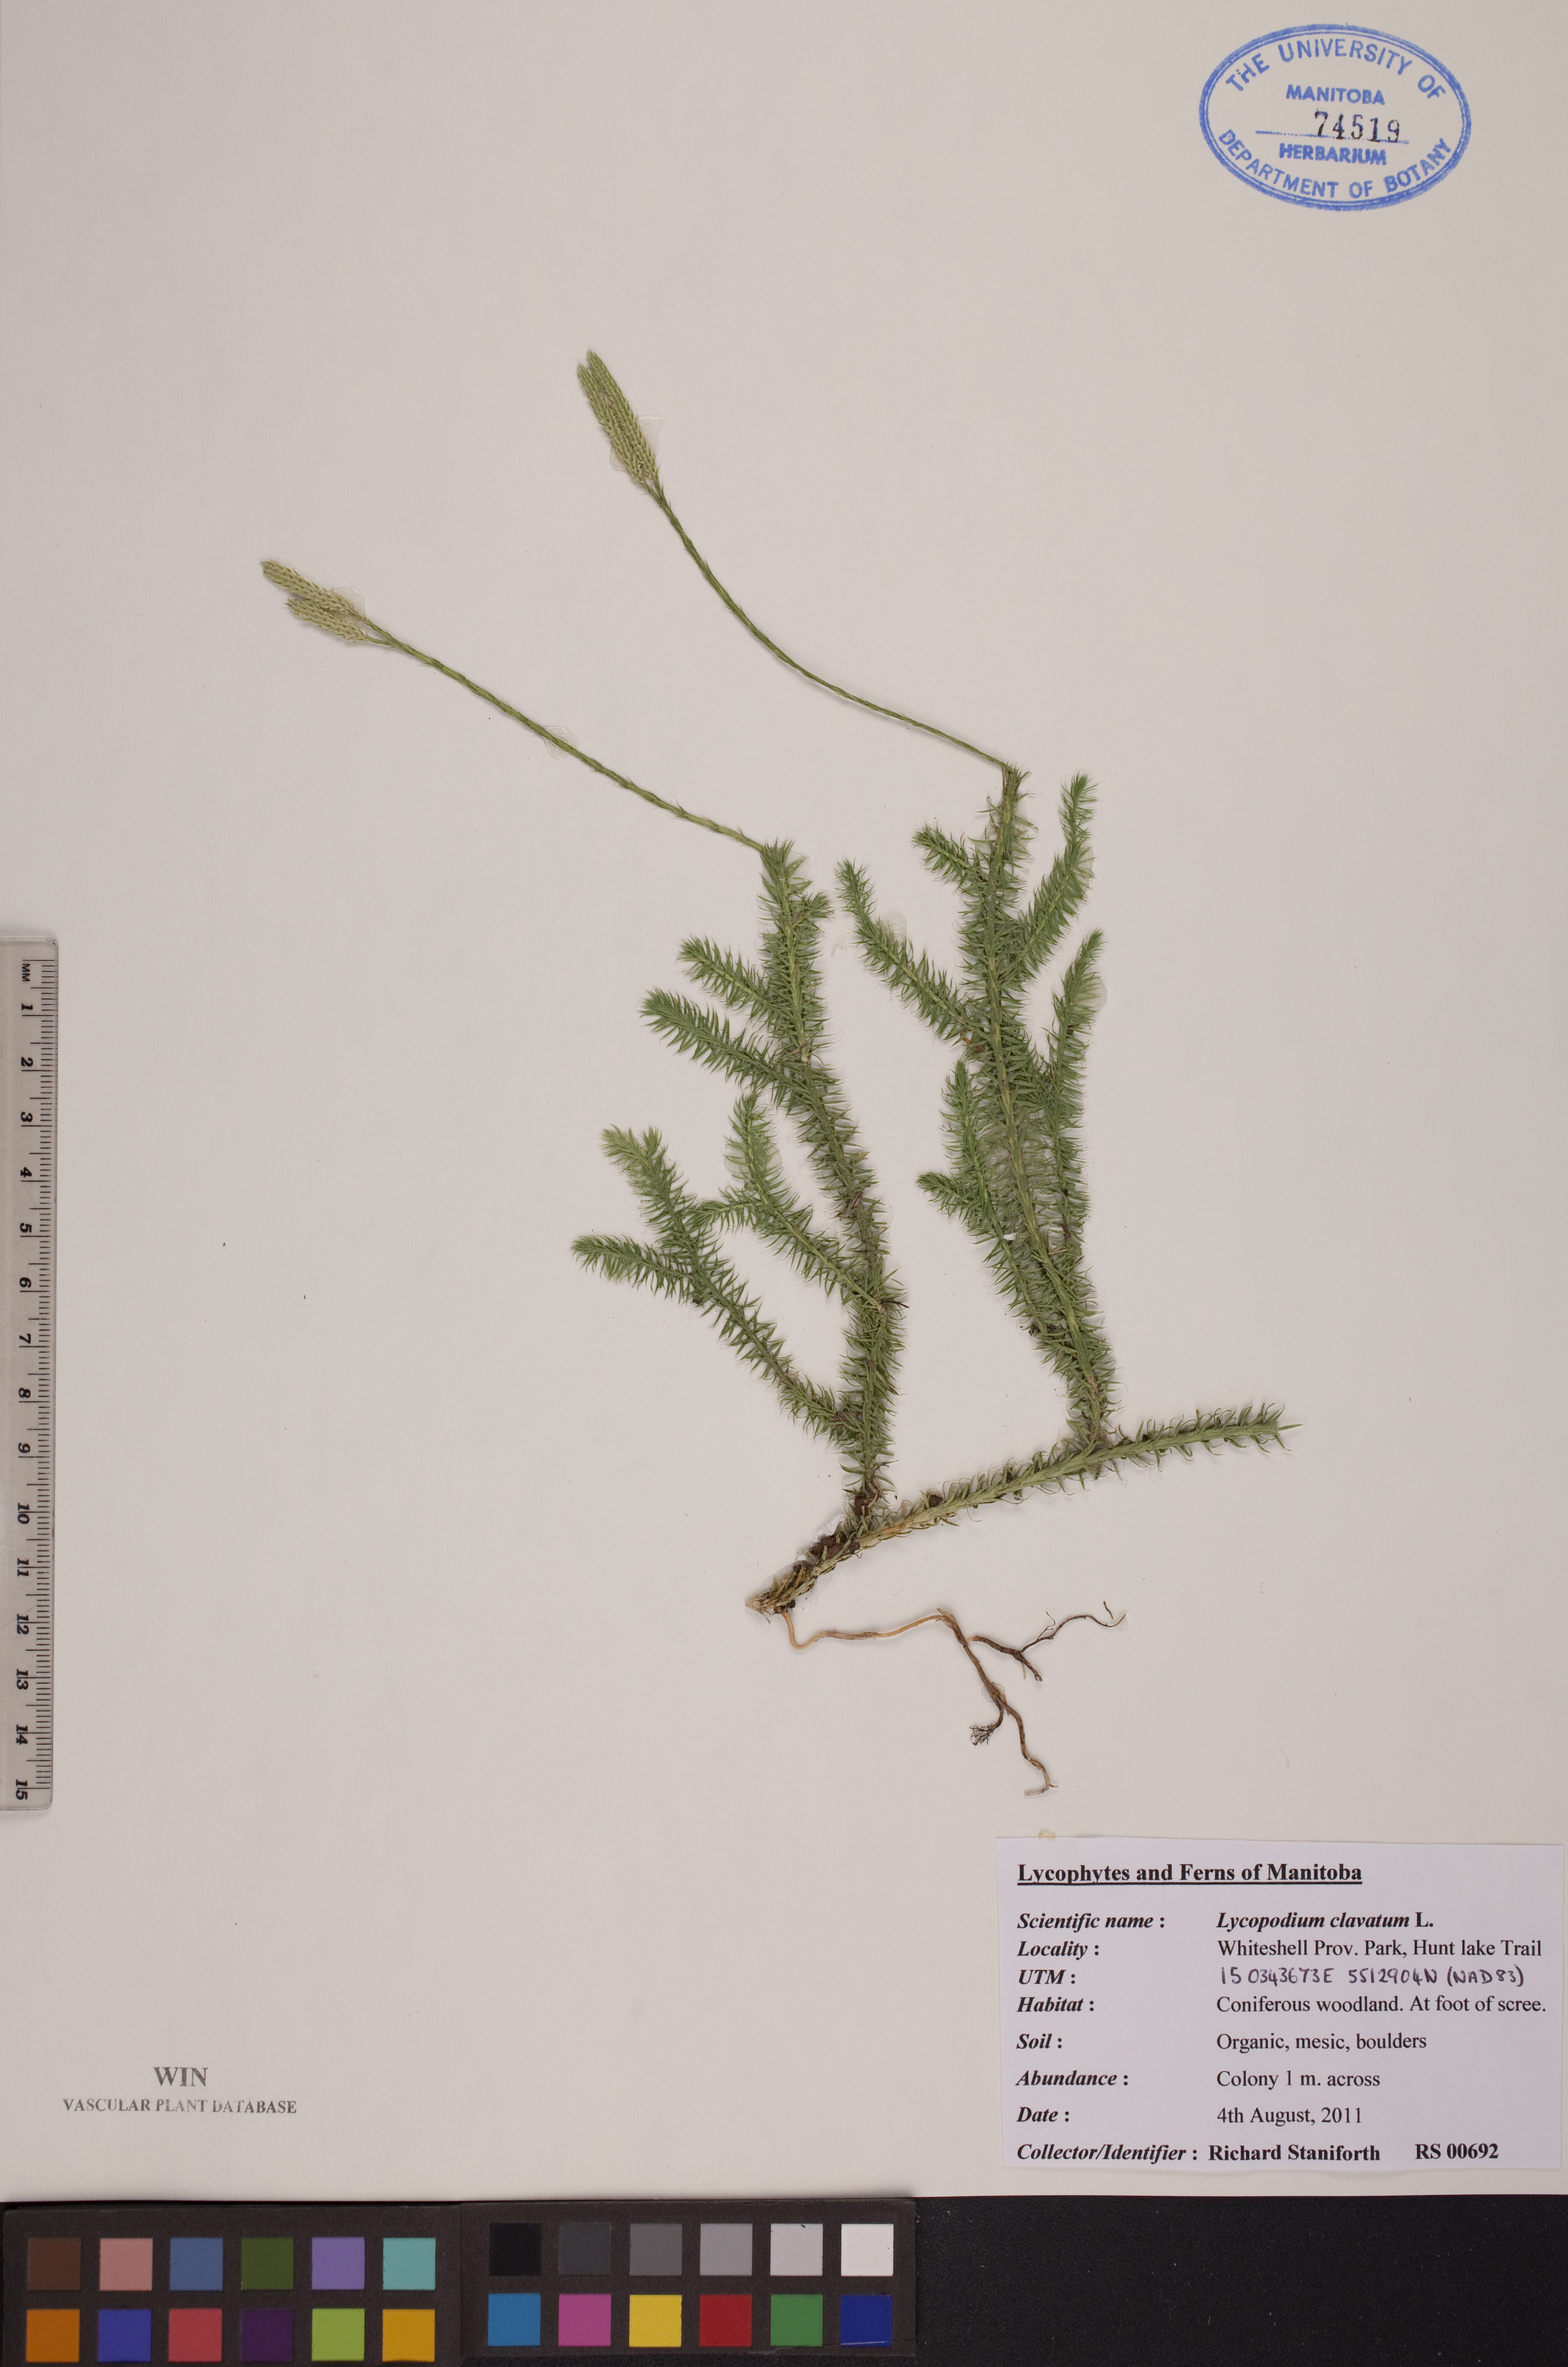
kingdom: Plantae
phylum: Tracheophyta
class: Lycopodiopsida
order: Lycopodiales
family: Lycopodiaceae
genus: Lycopodium
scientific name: Lycopodium clavatum
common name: Stag's-horn clubmoss
